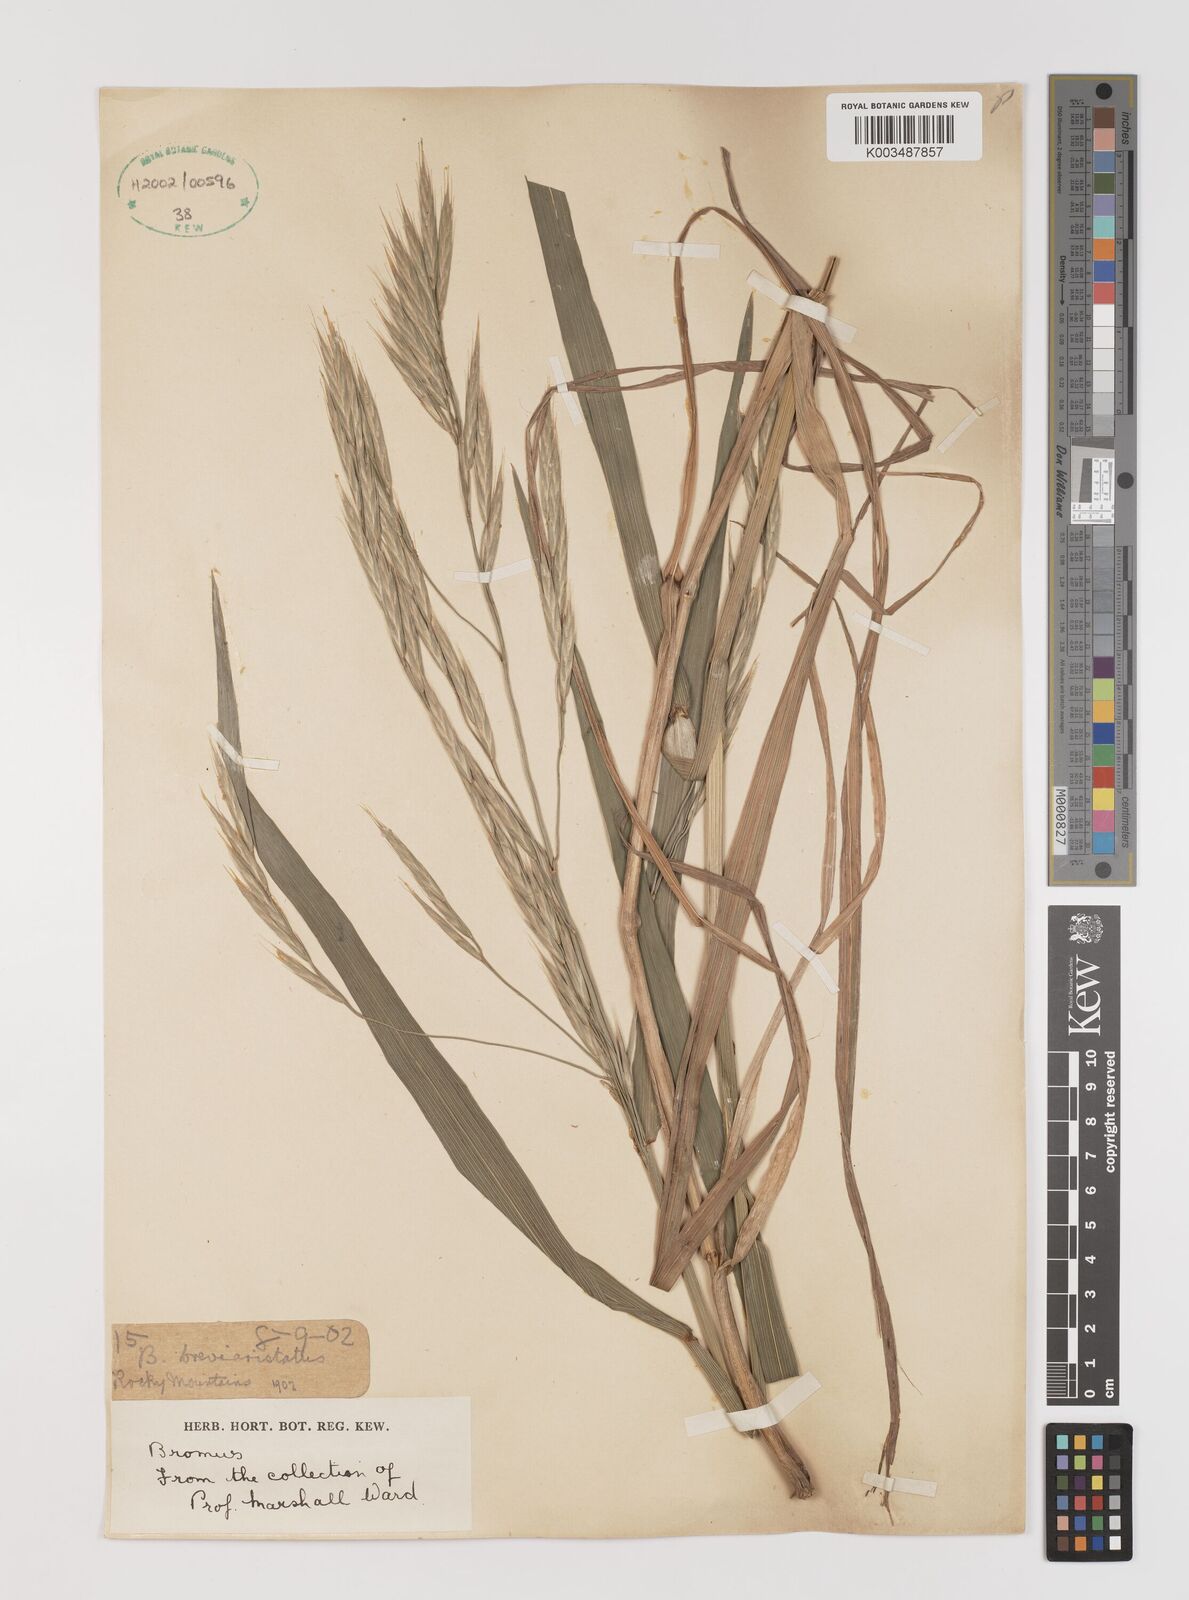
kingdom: Plantae
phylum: Tracheophyta
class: Liliopsida
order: Poales
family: Poaceae
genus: Bromus
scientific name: Bromus catharticus
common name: Rescuegrass
